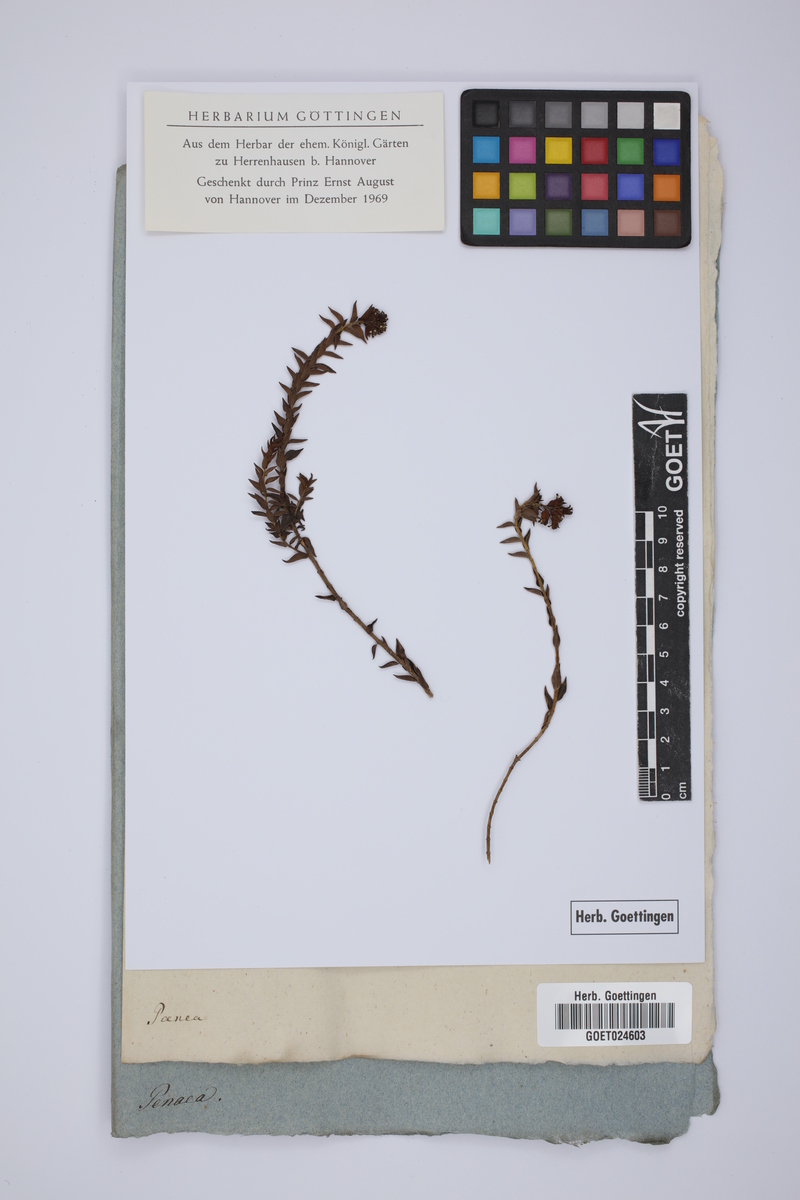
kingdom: Plantae
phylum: Tracheophyta
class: Magnoliopsida
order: Myrtales
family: Penaeaceae
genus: Penaea
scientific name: Penaea
